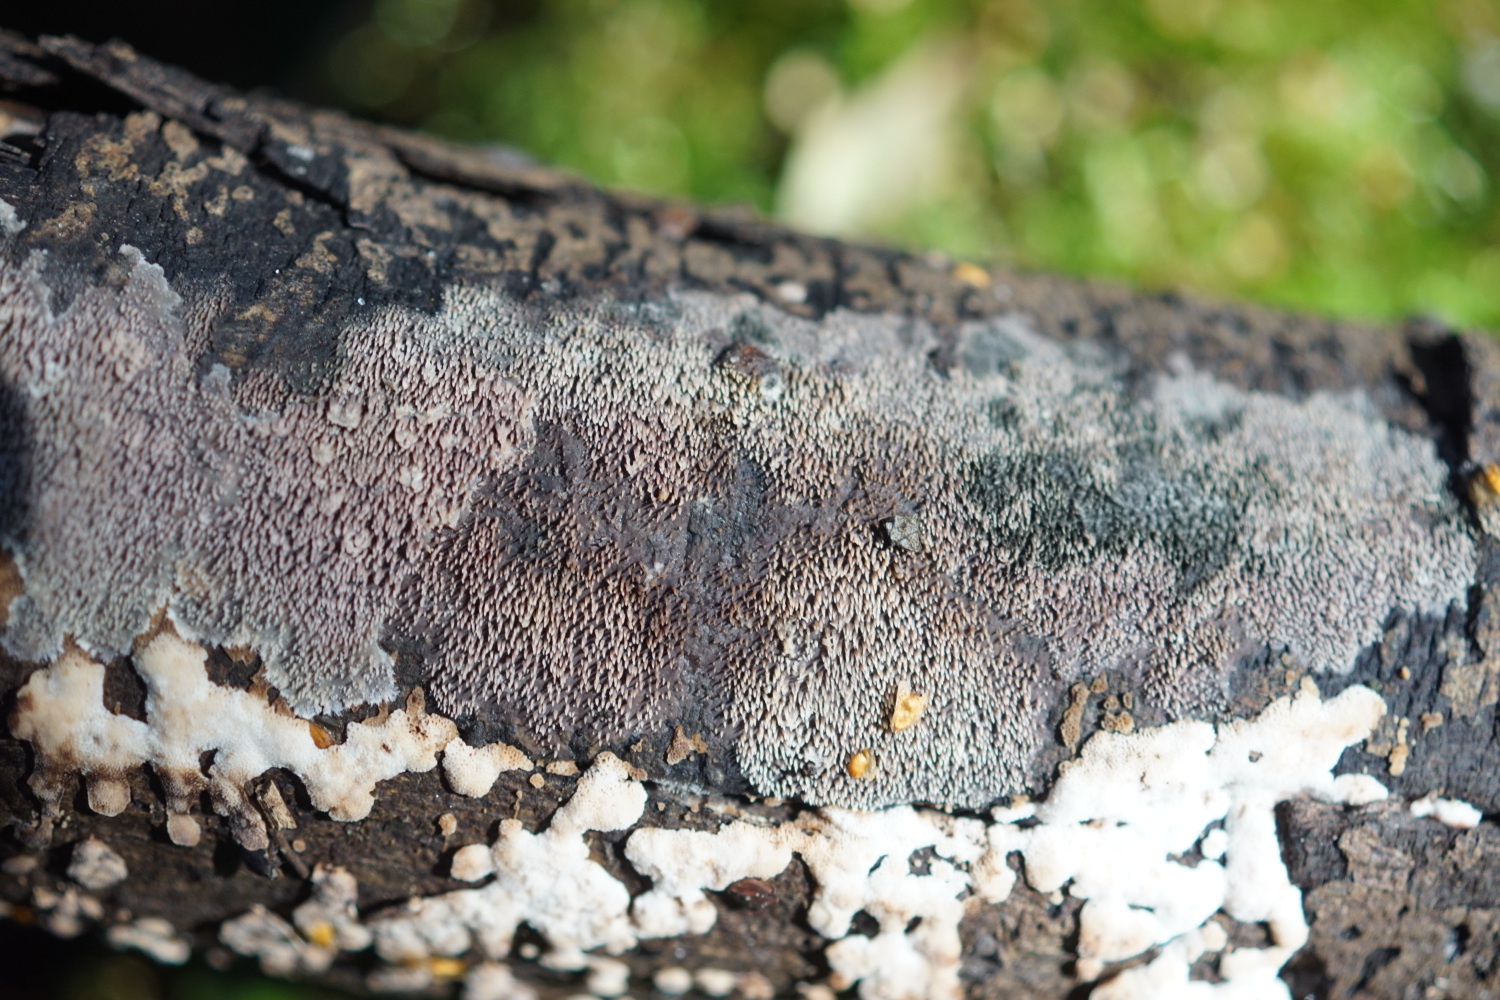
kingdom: Fungi
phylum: Basidiomycota
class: Agaricomycetes
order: Polyporales
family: Meruliaceae
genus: Mycoacia
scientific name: Mycoacia fuscoatra
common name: mørk vokspig
